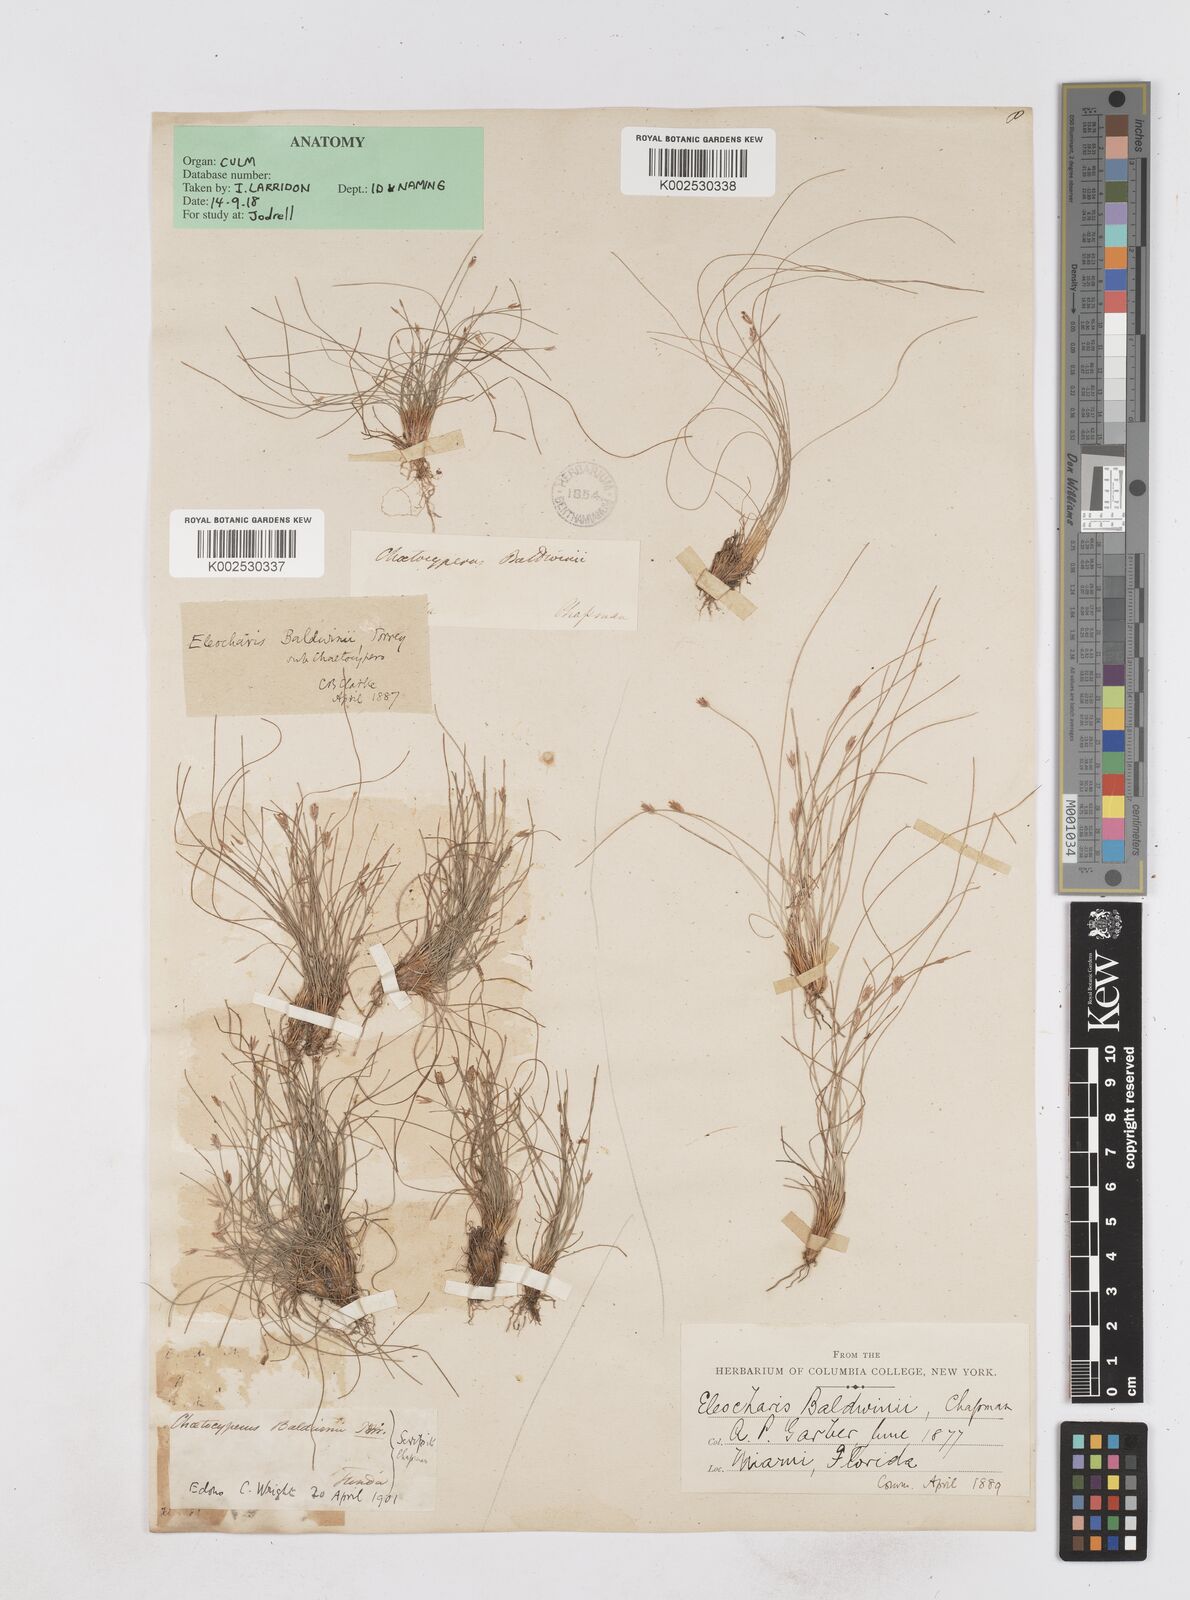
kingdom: Plantae
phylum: Tracheophyta
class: Liliopsida
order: Poales
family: Cyperaceae
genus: Eleocharis
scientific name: Eleocharis baldwinii
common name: Baldwin's spike-rush
